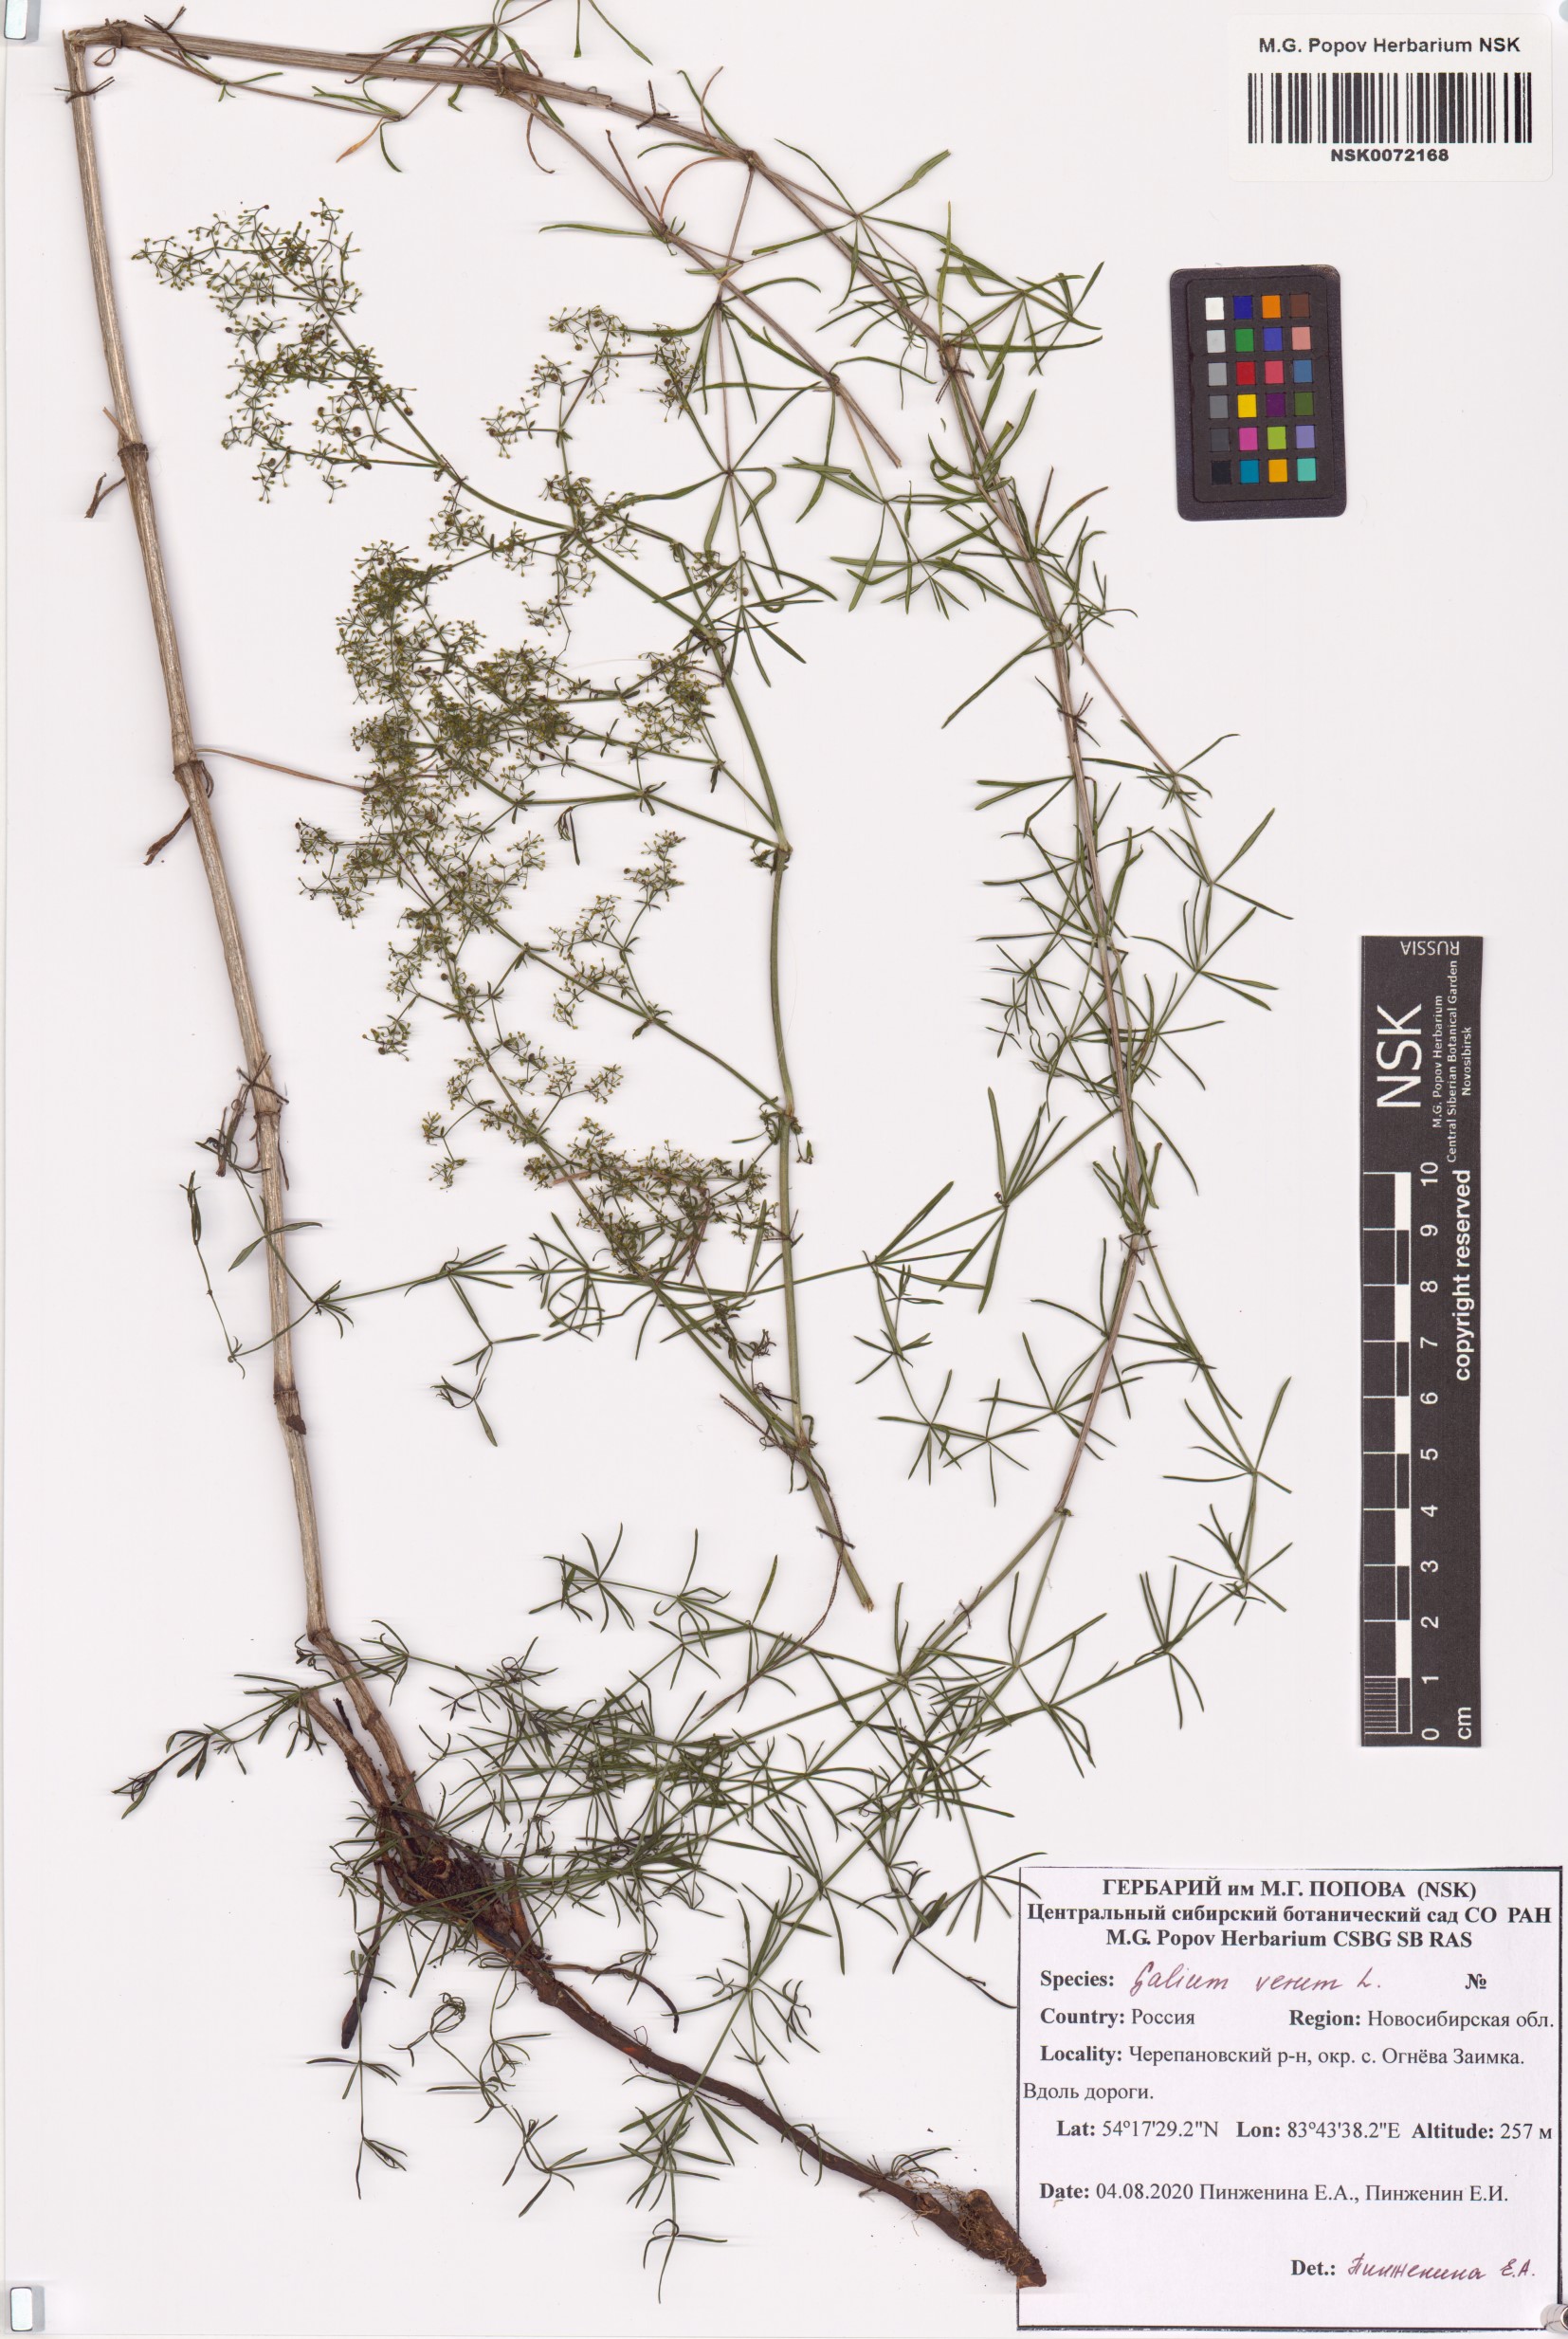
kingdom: Plantae
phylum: Tracheophyta
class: Magnoliopsida
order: Gentianales
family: Rubiaceae
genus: Galium
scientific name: Galium verum
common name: Lady's bedstraw
